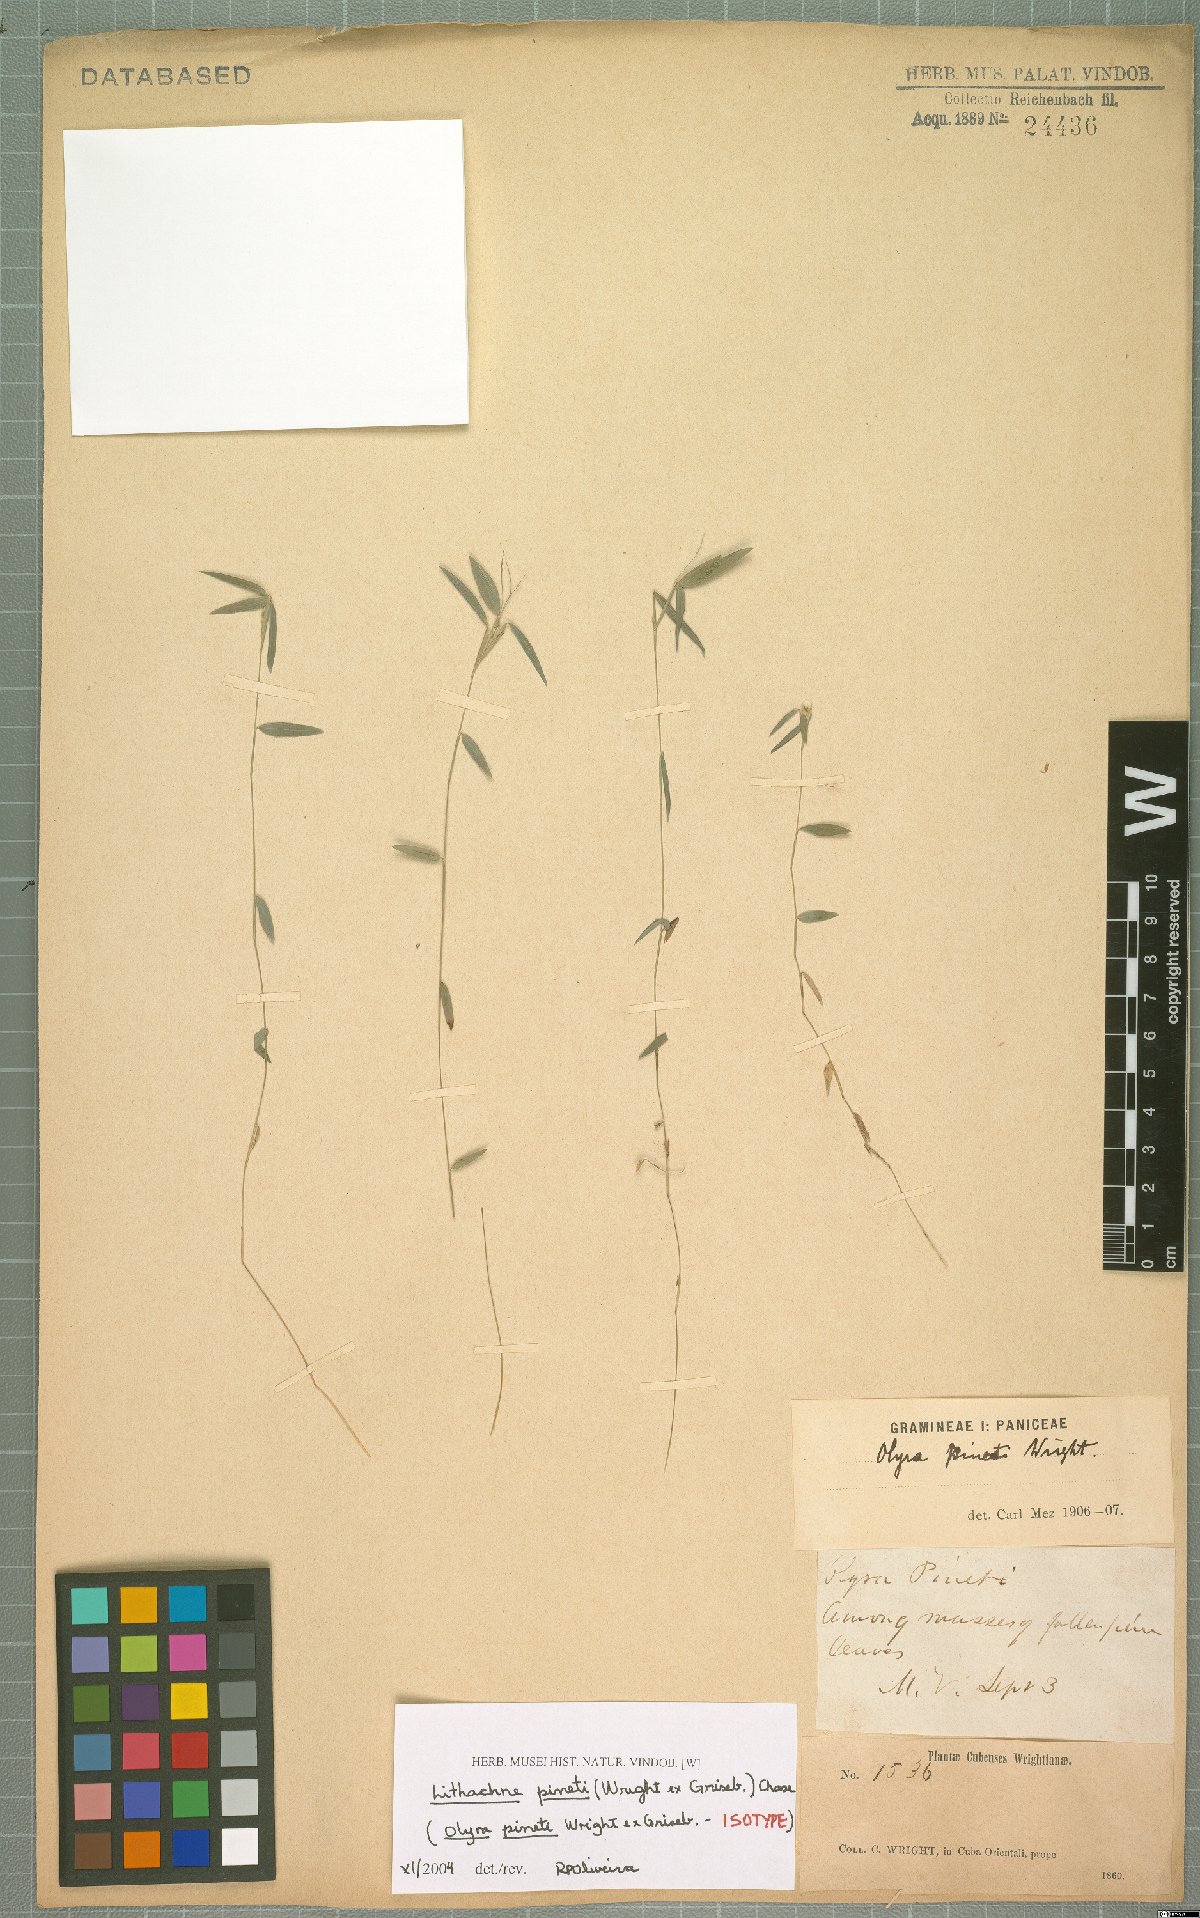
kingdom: Plantae
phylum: Tracheophyta
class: Liliopsida
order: Poales
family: Poaceae
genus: Lithachne
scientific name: Lithachne pinetii
